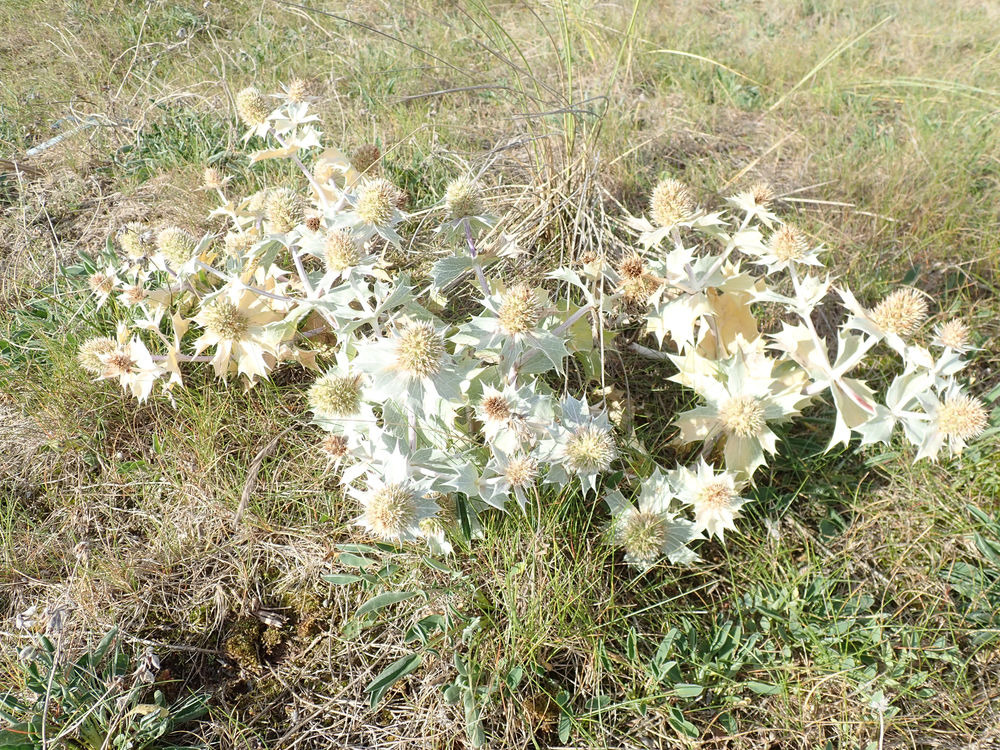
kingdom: Plantae
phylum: Tracheophyta
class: Magnoliopsida
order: Apiales
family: Apiaceae
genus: Eryngium
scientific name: Eryngium maritimum
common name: Strand-mandstro
